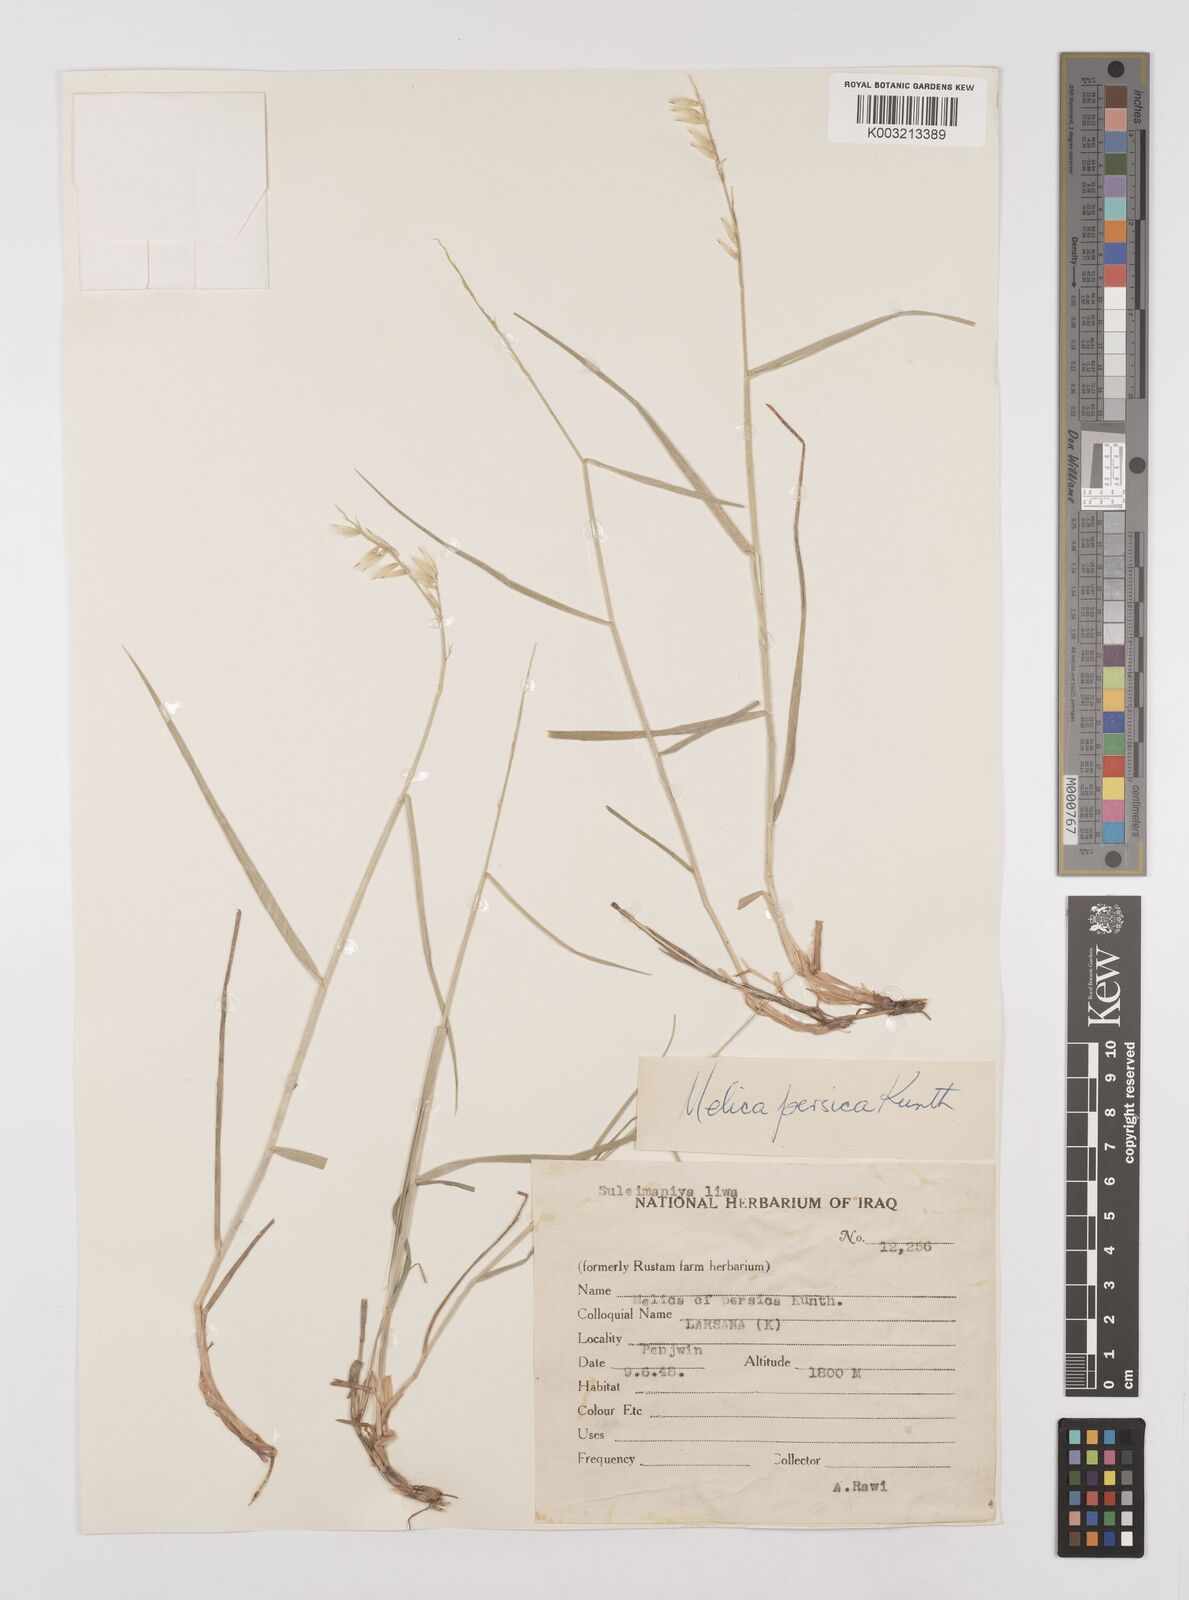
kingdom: Plantae
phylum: Tracheophyta
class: Liliopsida
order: Poales
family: Poaceae
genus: Melica
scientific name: Melica persica
